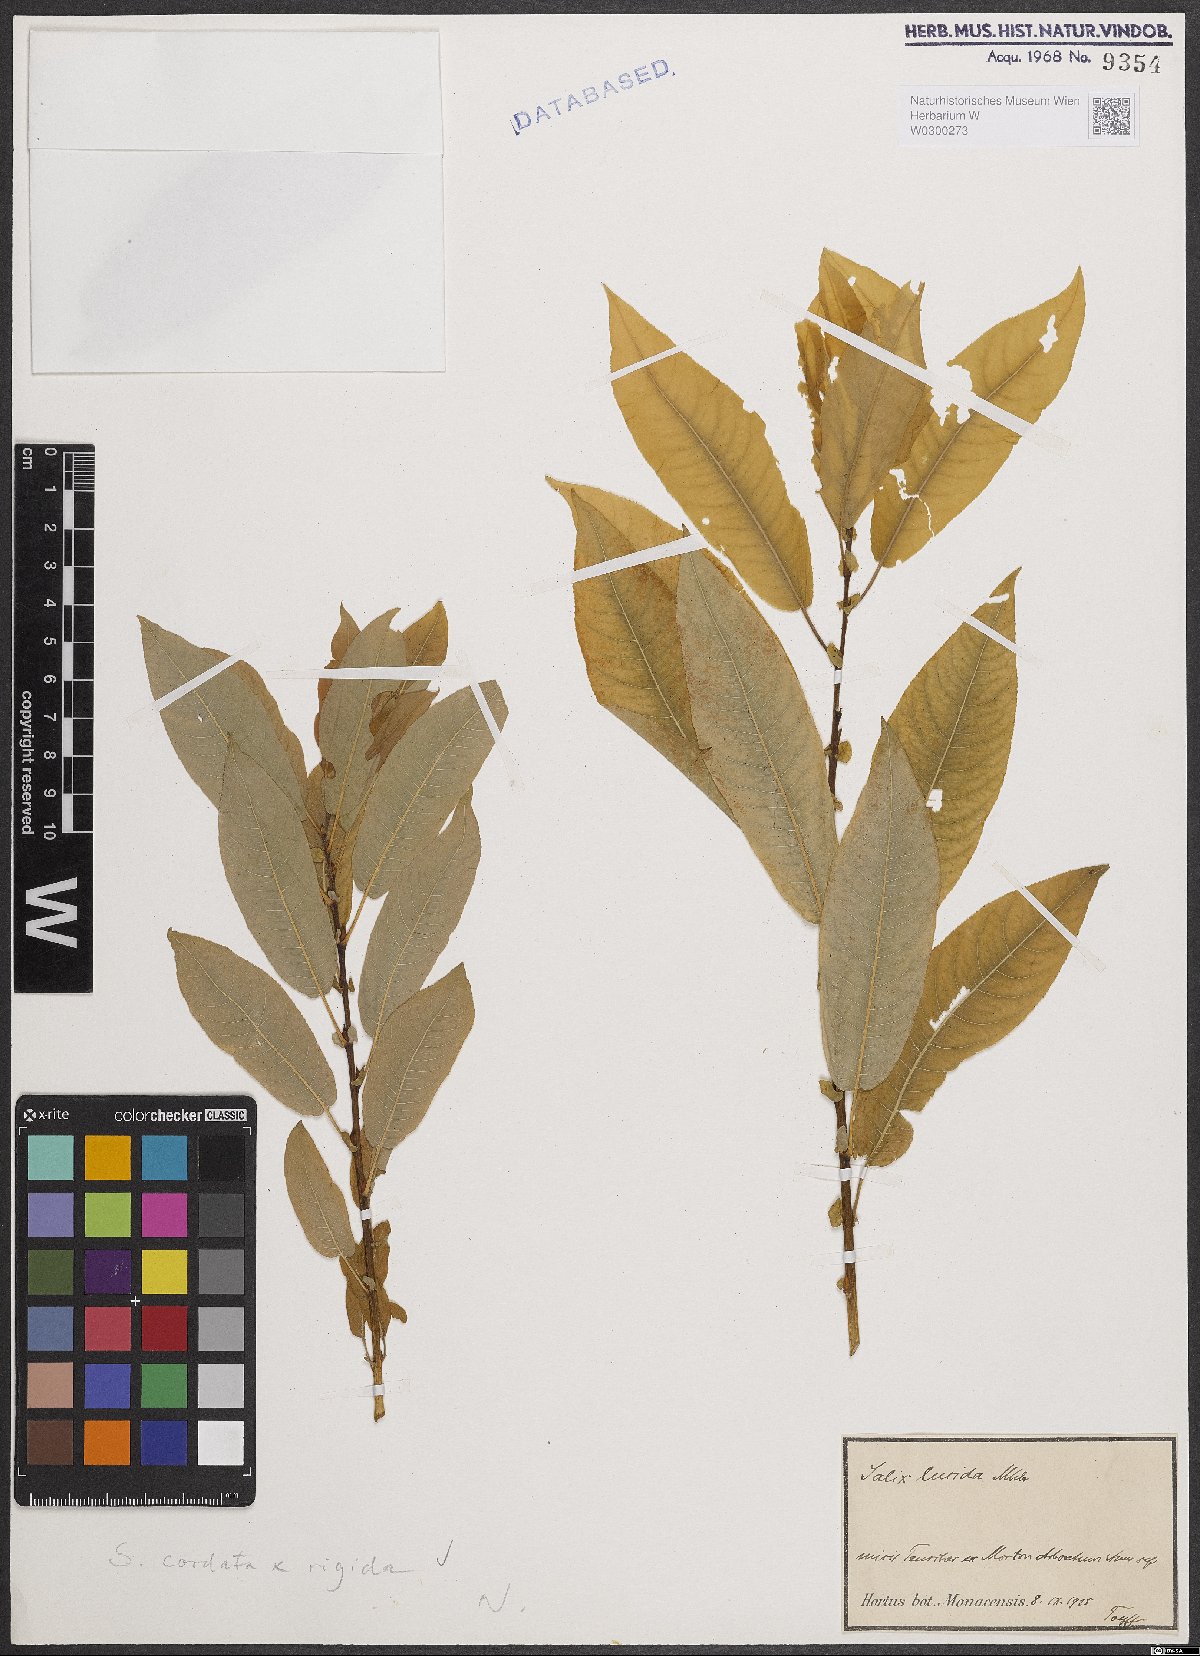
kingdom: Plantae
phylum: Tracheophyta
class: Magnoliopsida
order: Malpighiales
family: Salicaceae
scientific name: Salicaceae
